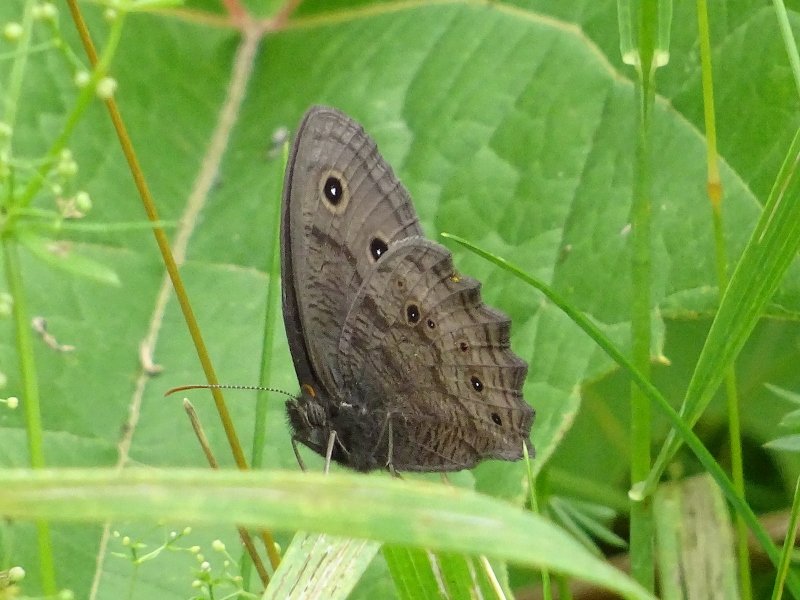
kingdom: Animalia
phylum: Arthropoda
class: Insecta
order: Lepidoptera
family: Nymphalidae
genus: Cercyonis
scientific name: Cercyonis pegala
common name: Common Wood-Nymph
